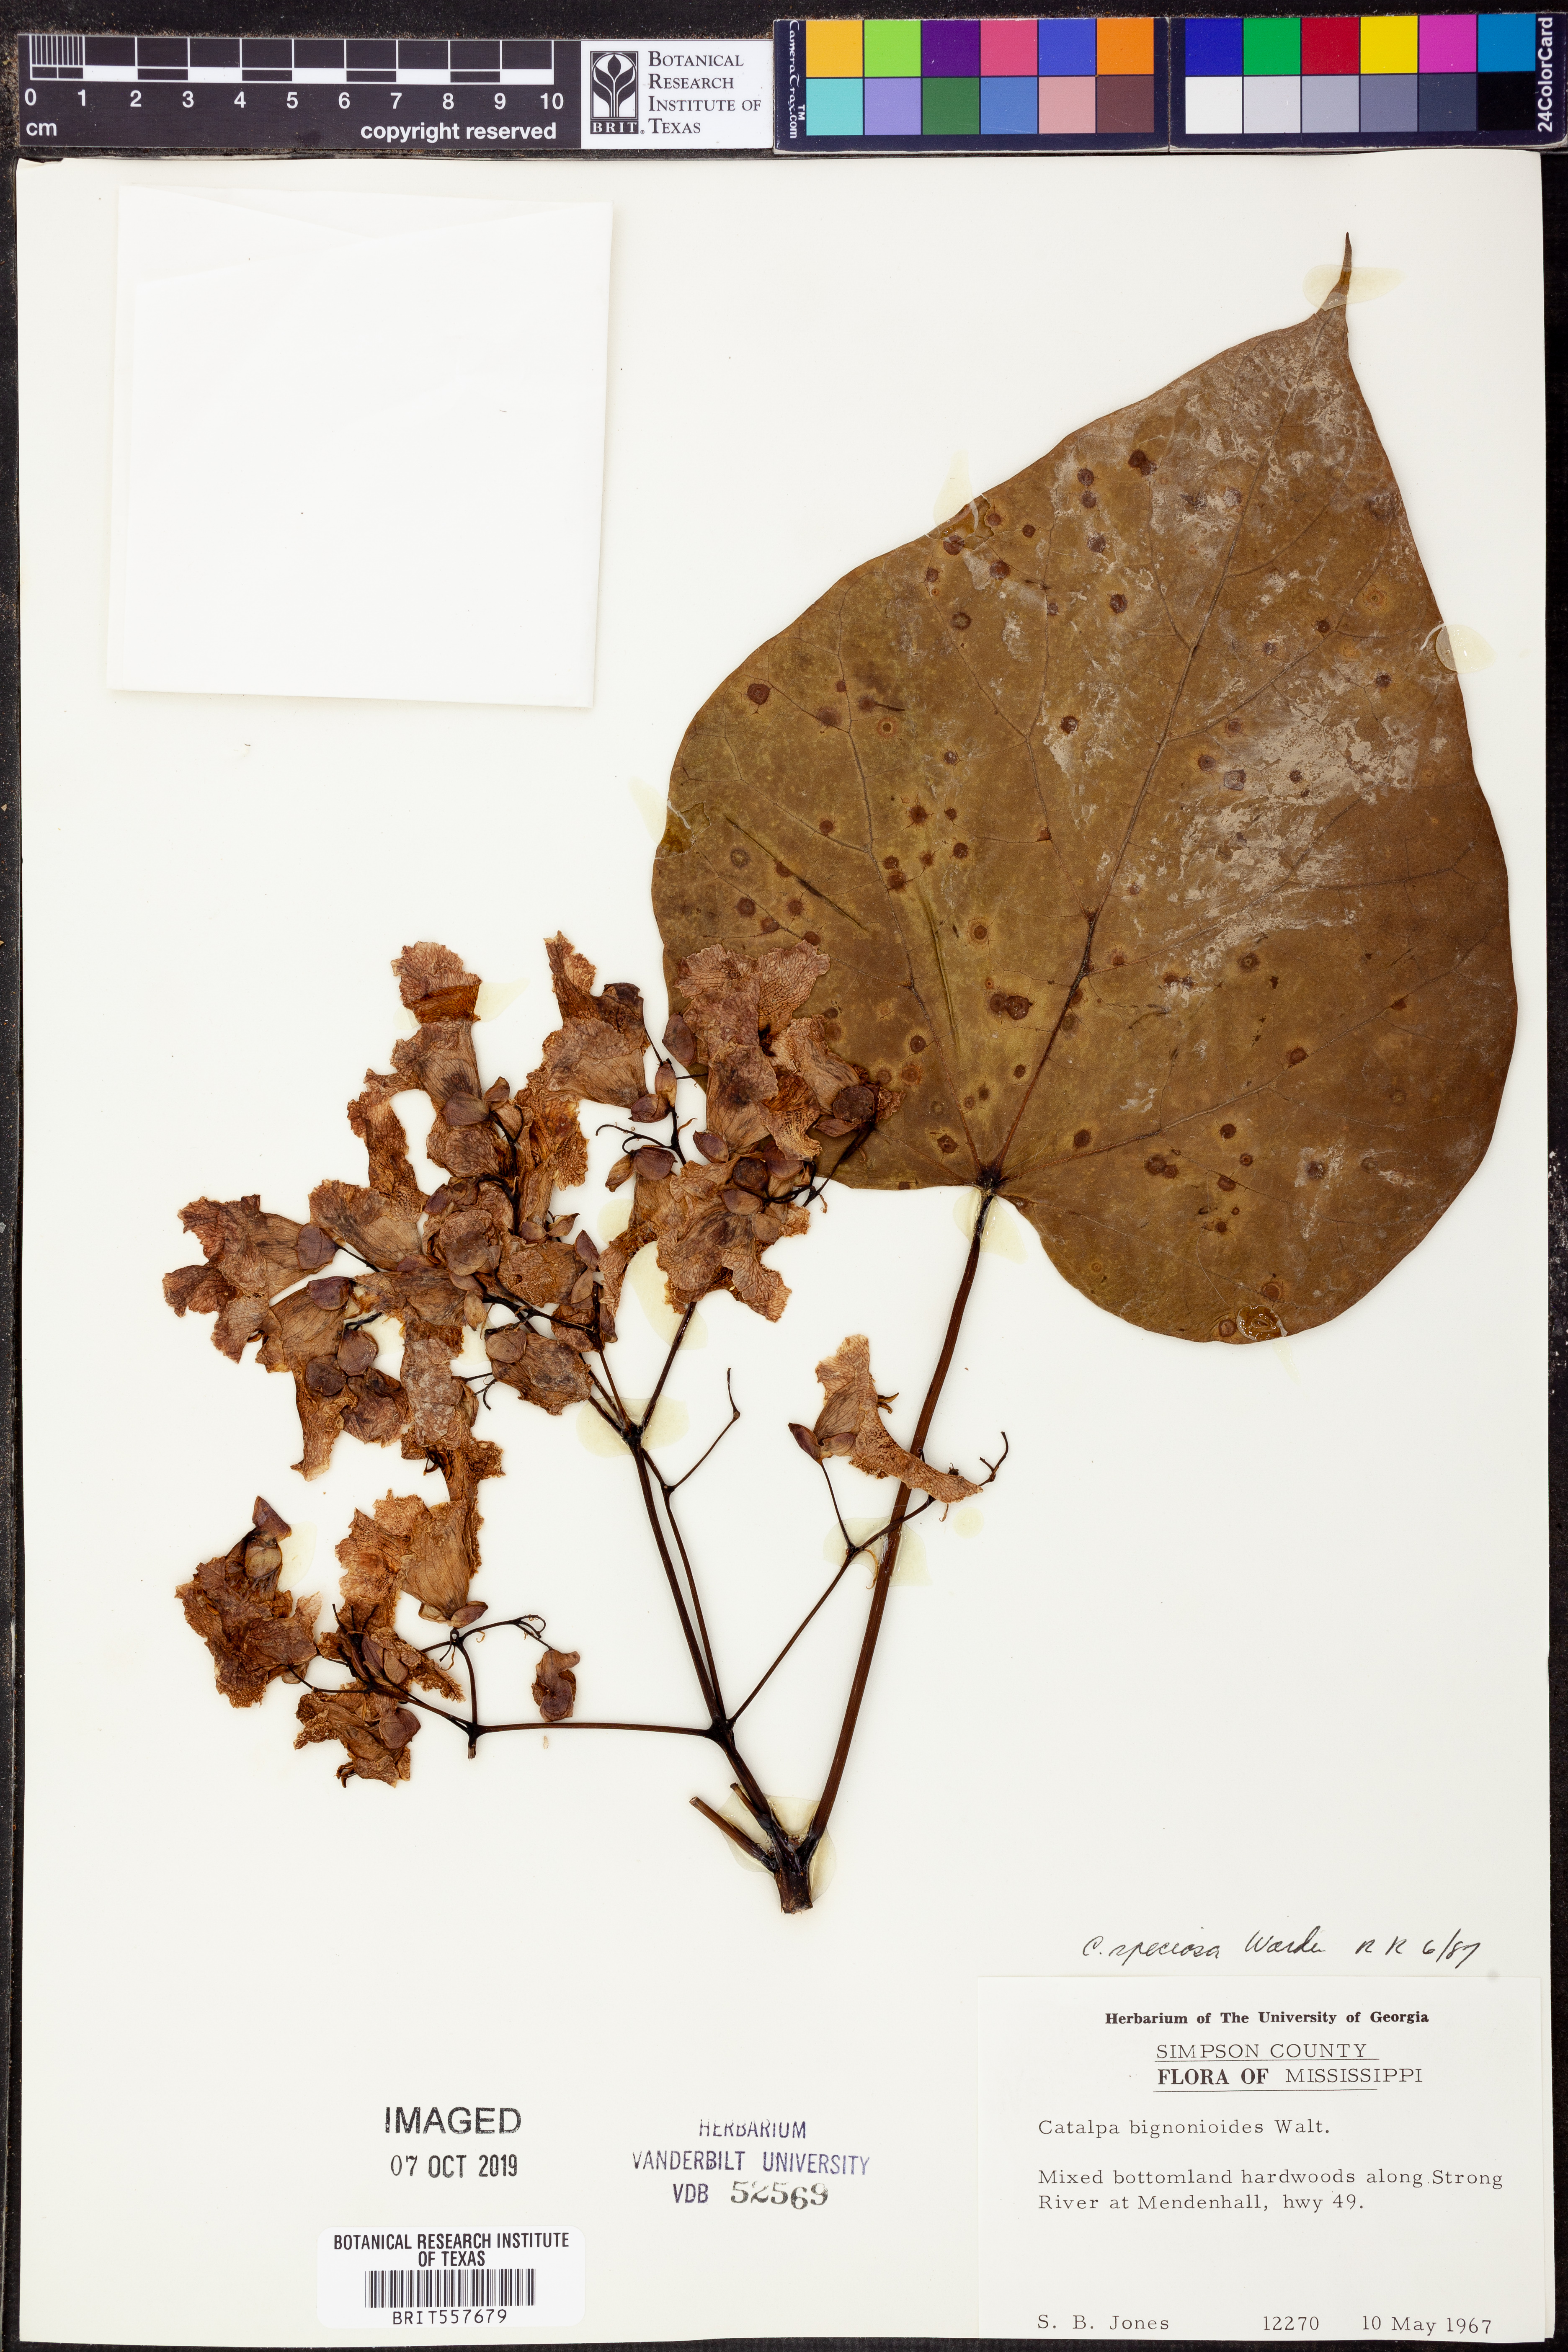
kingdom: Plantae
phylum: Tracheophyta
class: Magnoliopsida
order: Lamiales
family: Bignoniaceae
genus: Catalpa
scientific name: Catalpa speciosa
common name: Northern catalpa
